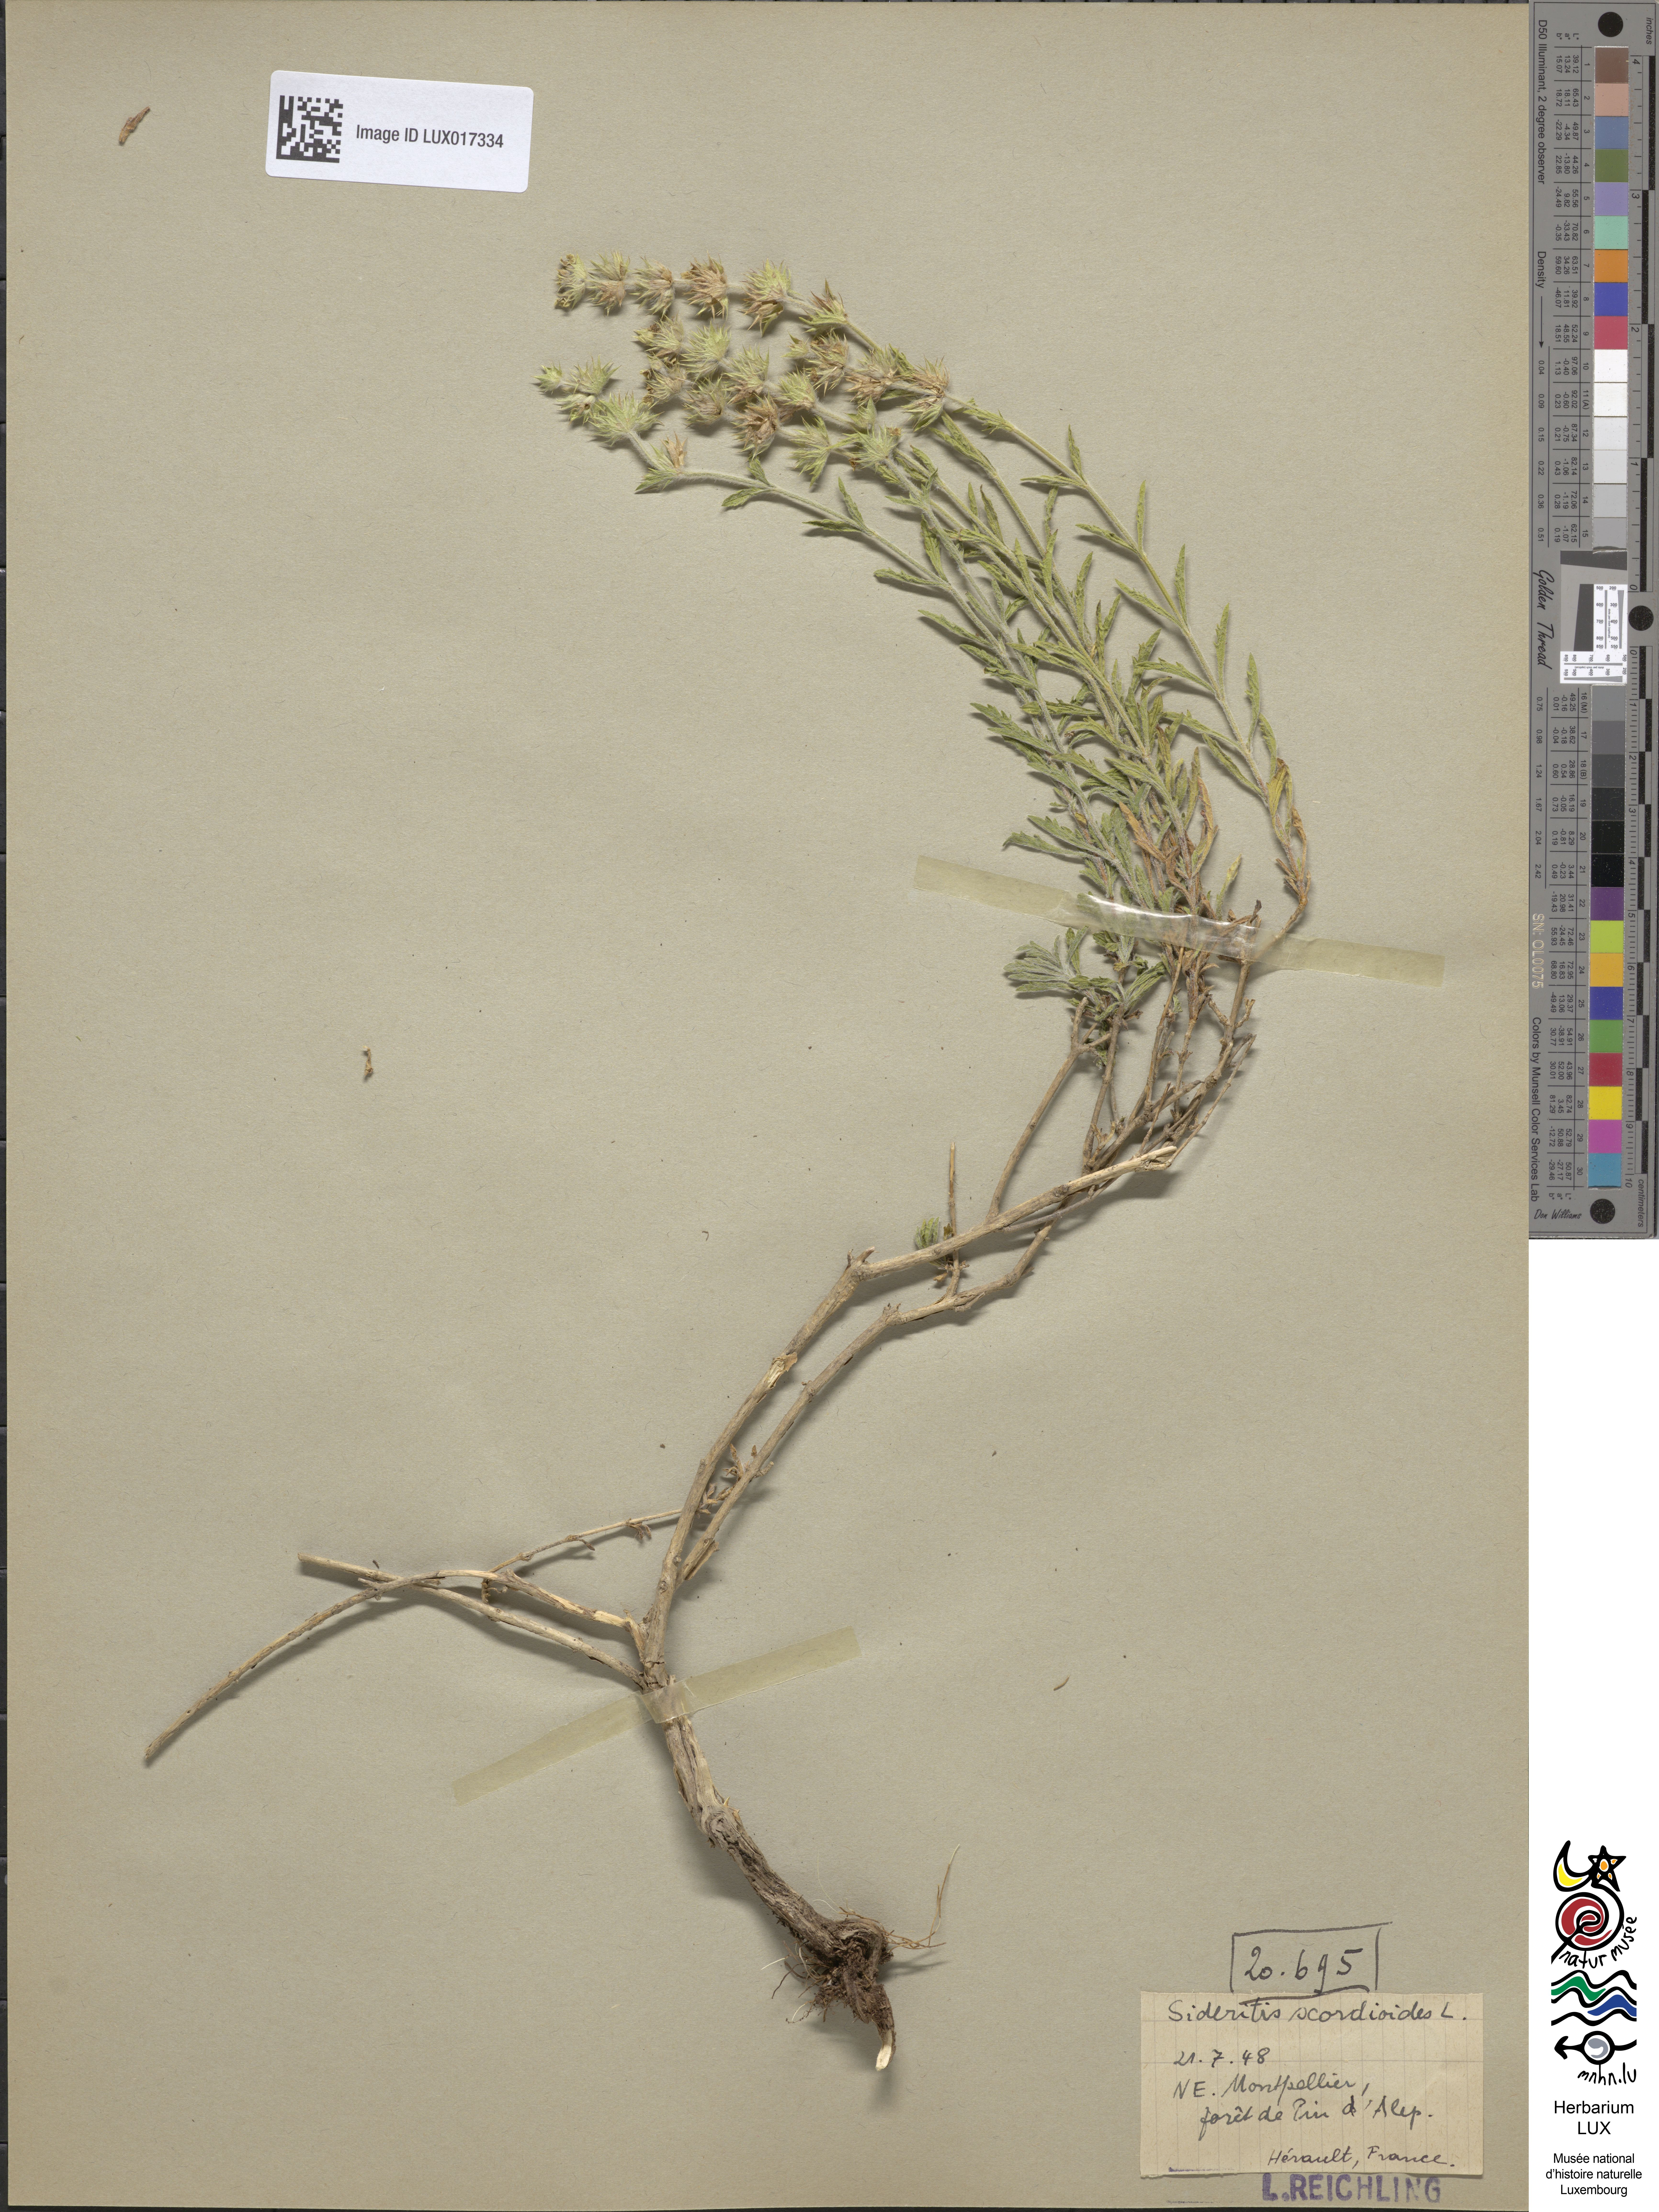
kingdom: Plantae
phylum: Tracheophyta
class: Magnoliopsida
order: Lamiales
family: Lamiaceae
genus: Sideritis
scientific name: Sideritis hyssopifolia
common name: Mountain tea
